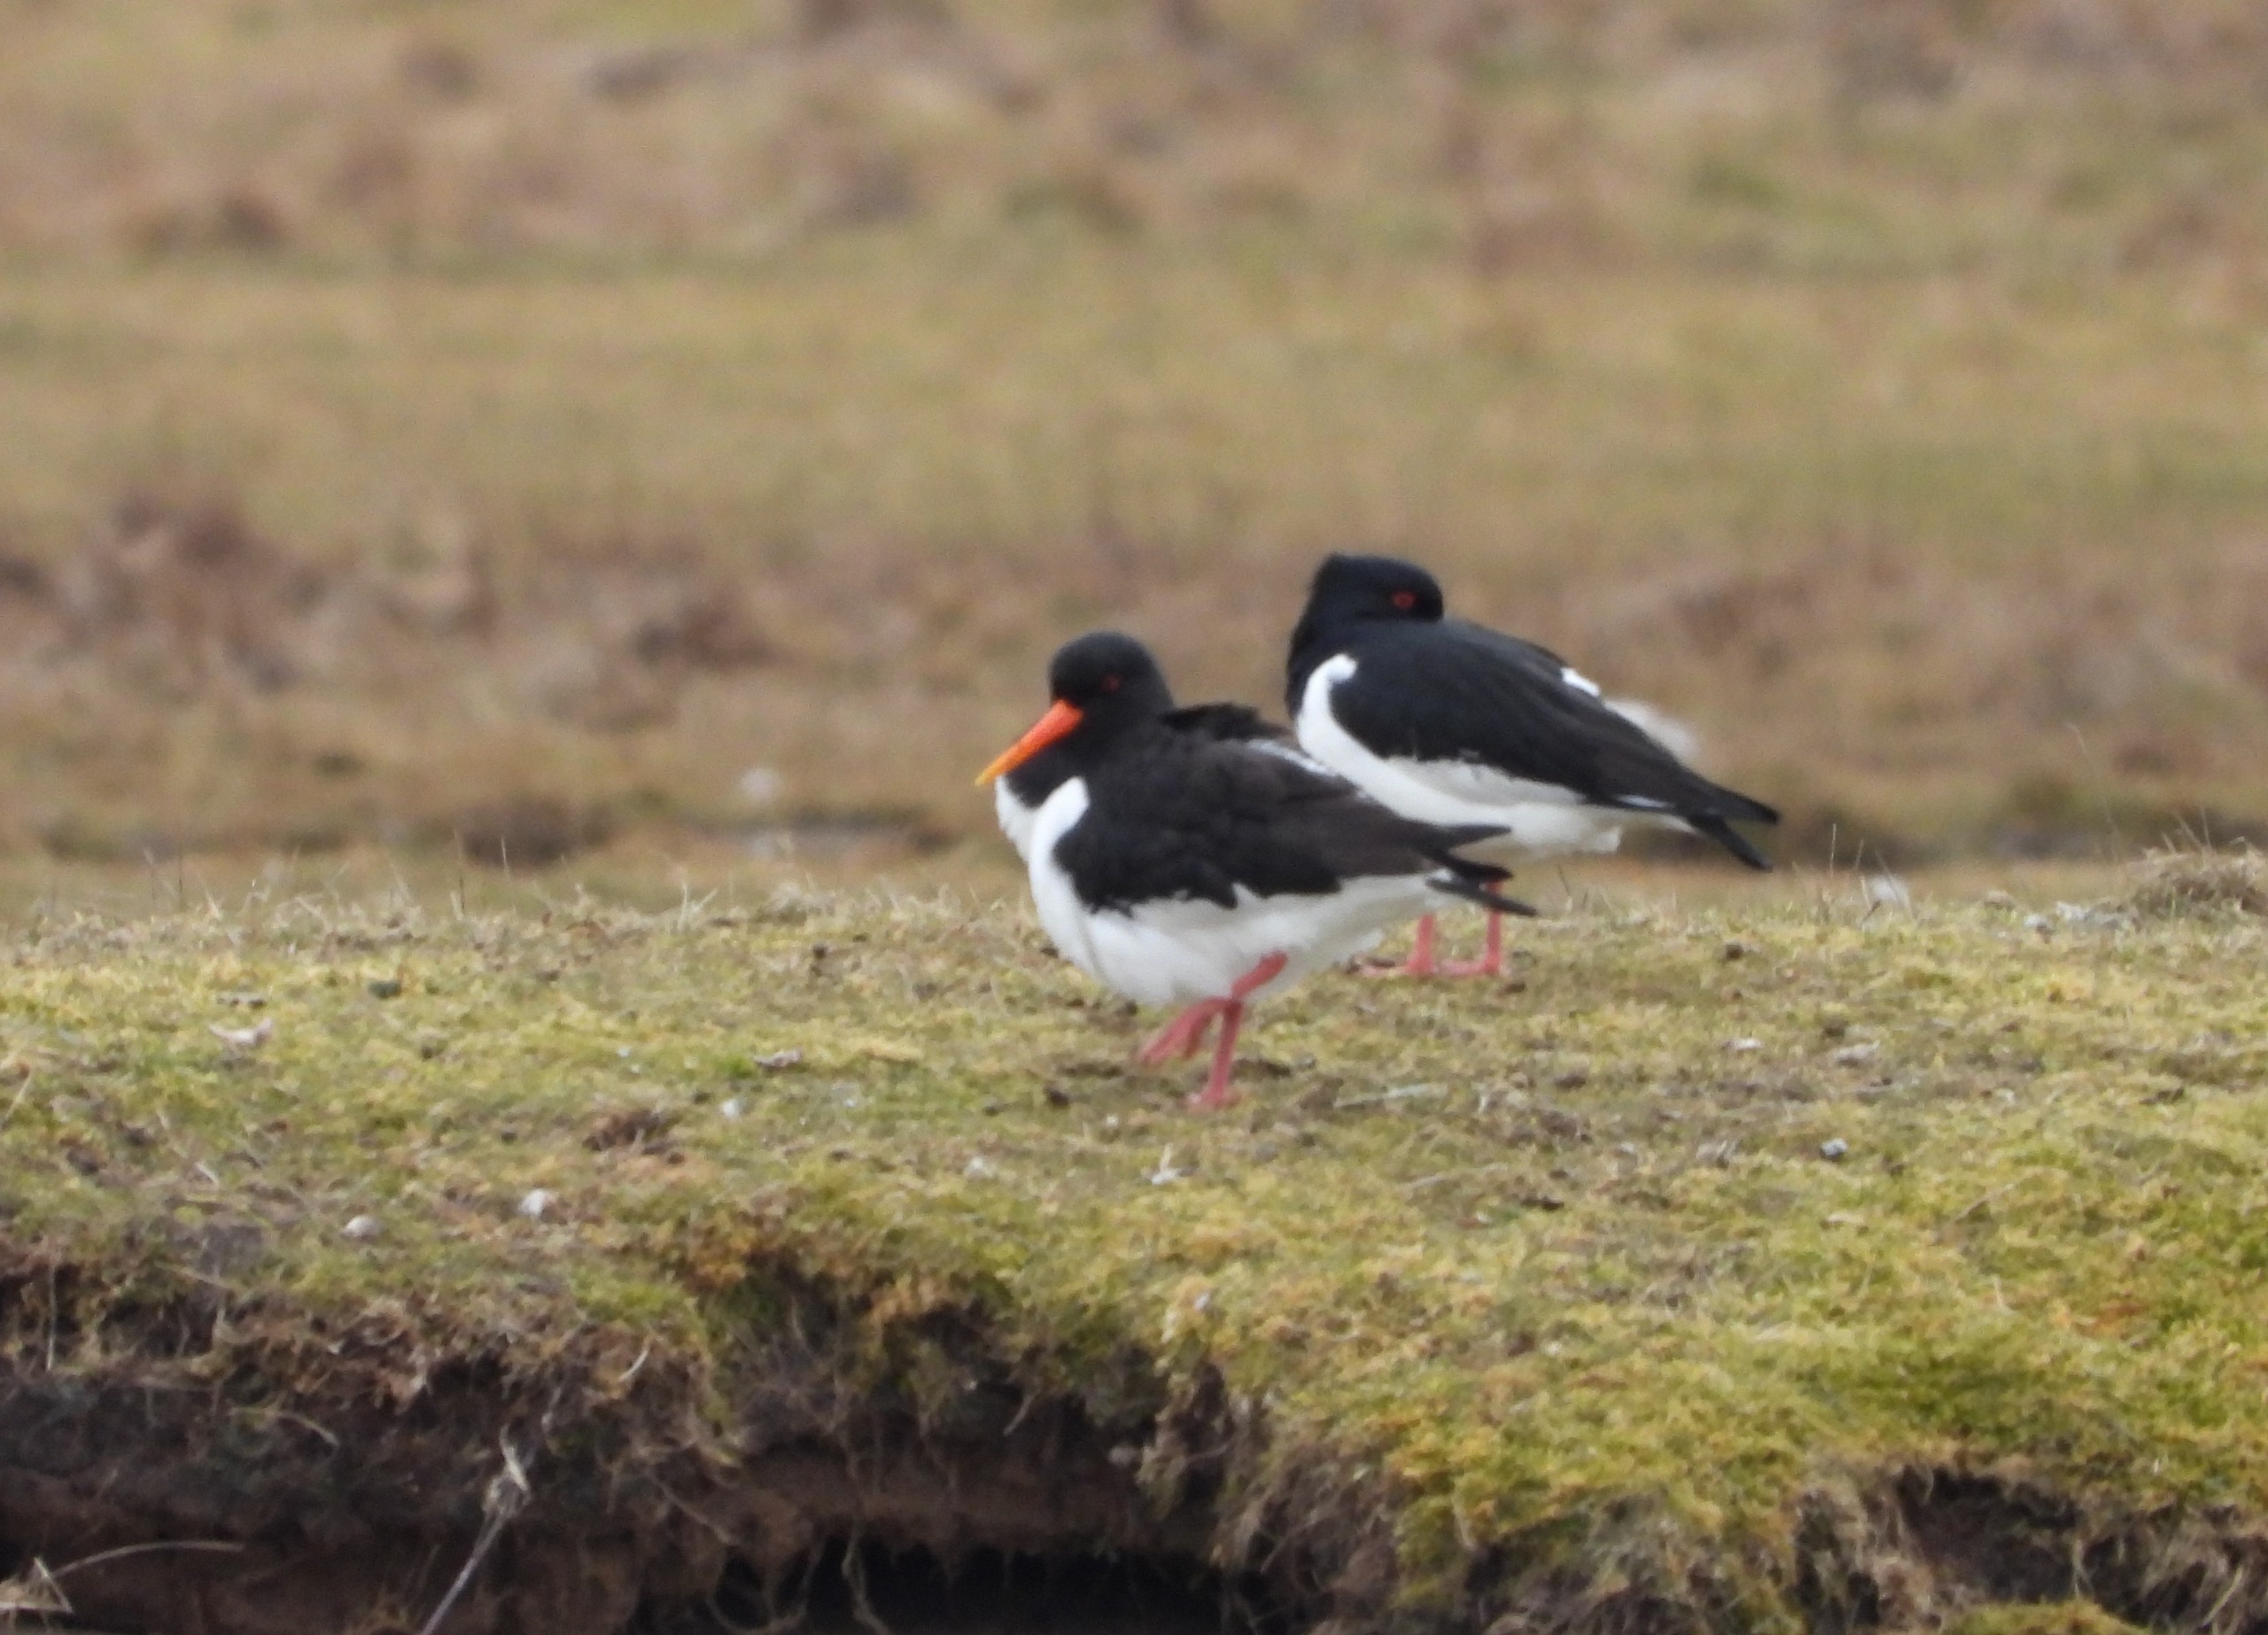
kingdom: Animalia
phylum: Chordata
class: Aves
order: Charadriiformes
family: Haematopodidae
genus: Haematopus
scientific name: Haematopus ostralegus
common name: Strandskade
